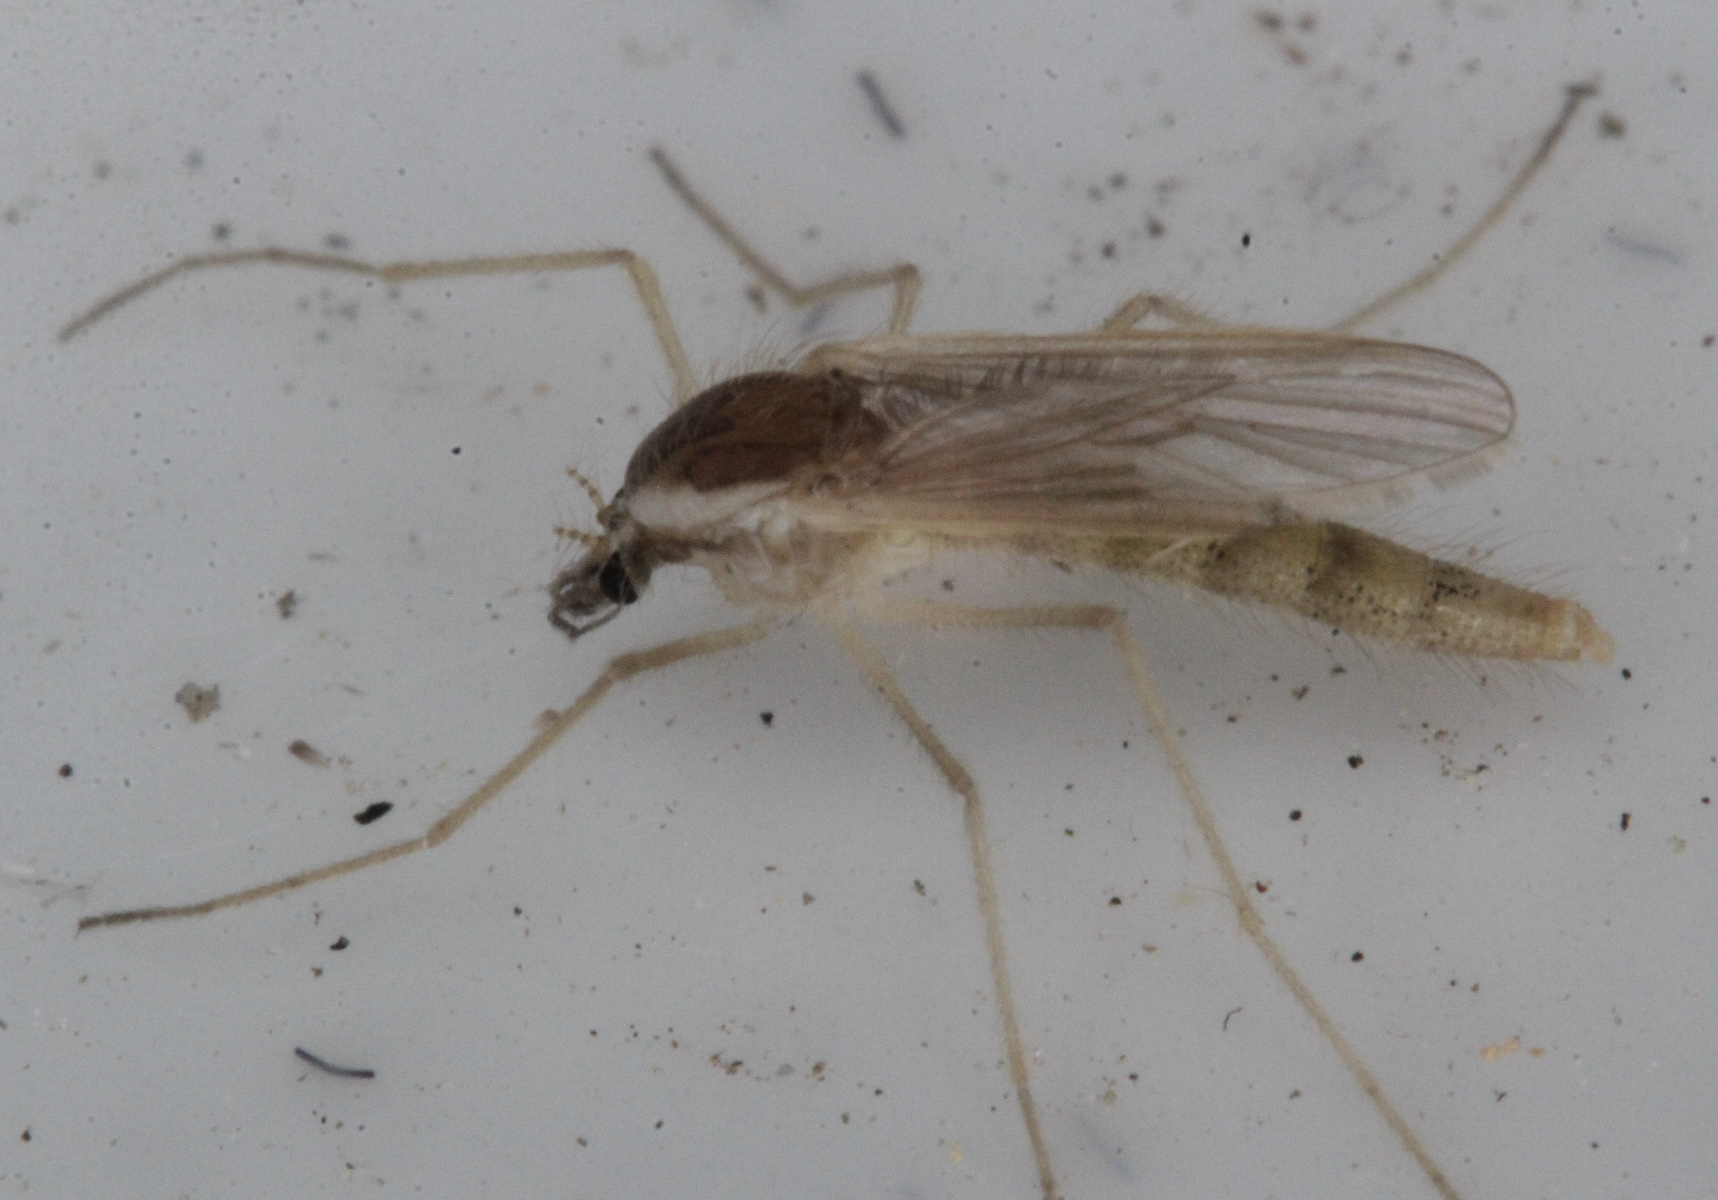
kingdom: Animalia
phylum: Arthropoda
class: Insecta
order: Diptera
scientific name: Diptera
